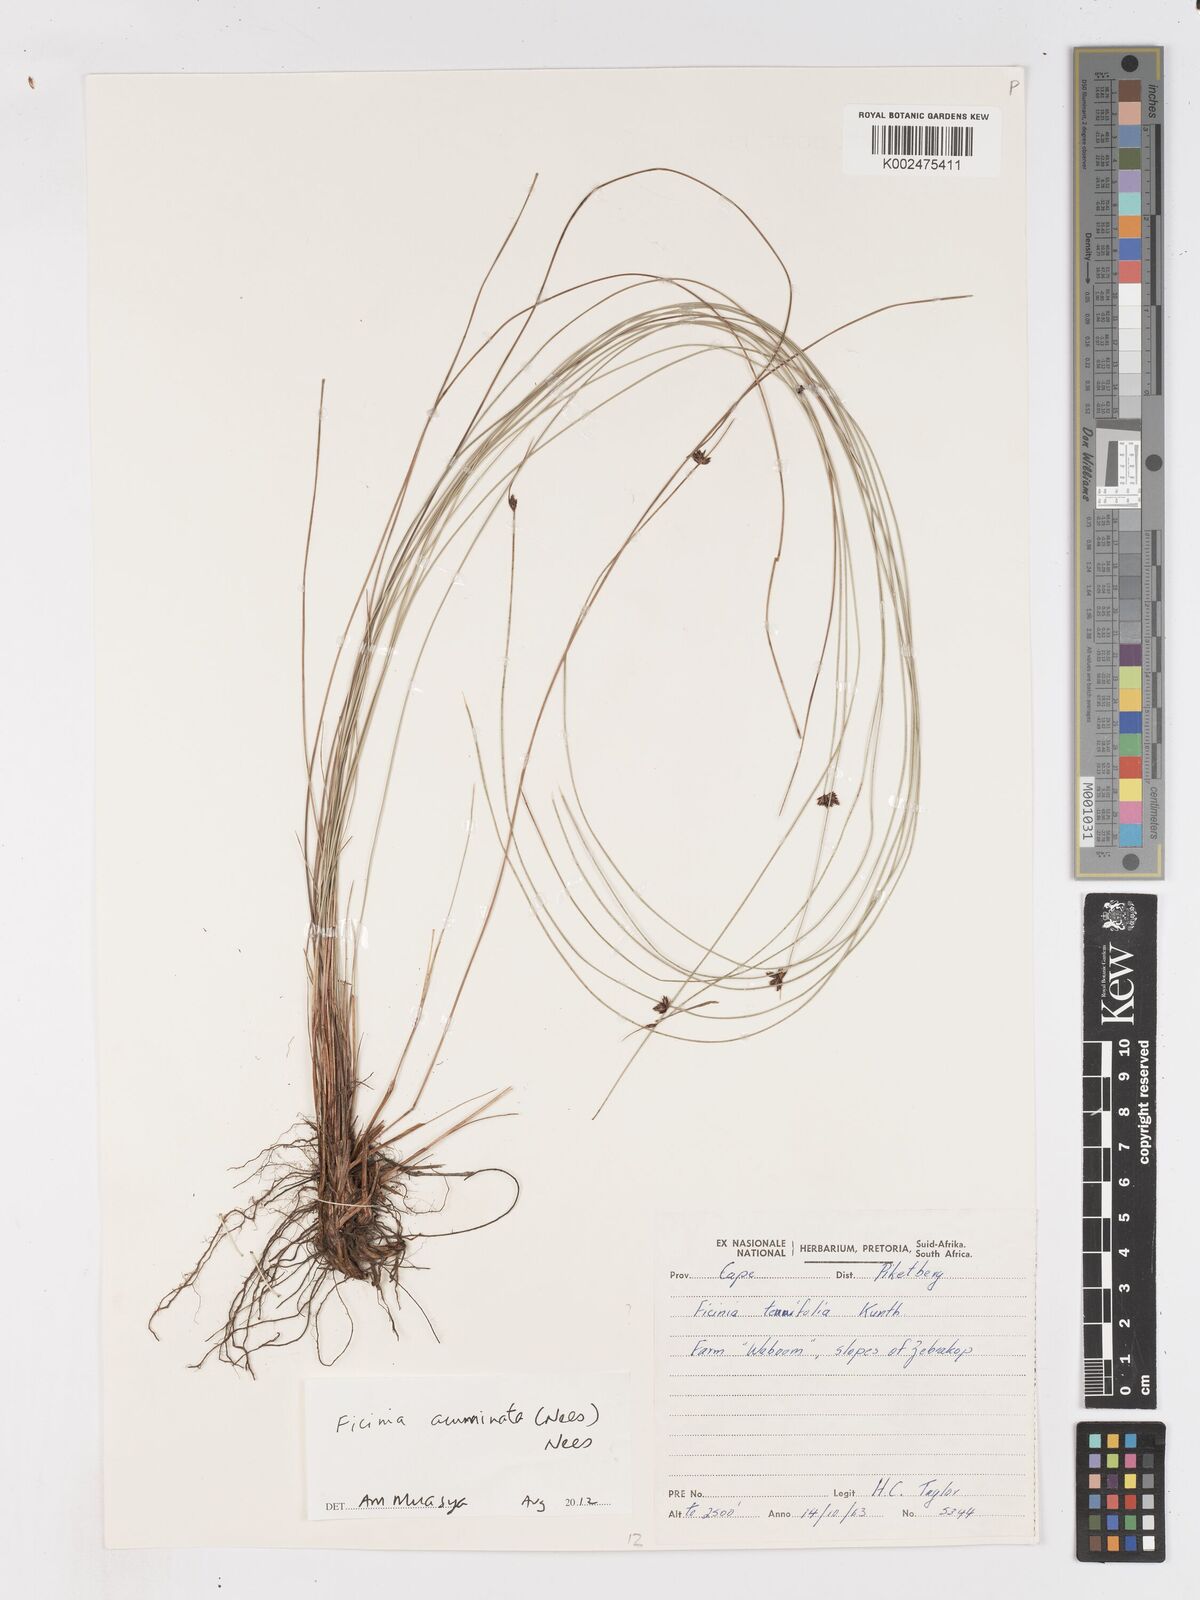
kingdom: Plantae
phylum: Tracheophyta
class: Liliopsida
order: Poales
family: Cyperaceae
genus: Ficinia
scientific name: Ficinia acuminata
